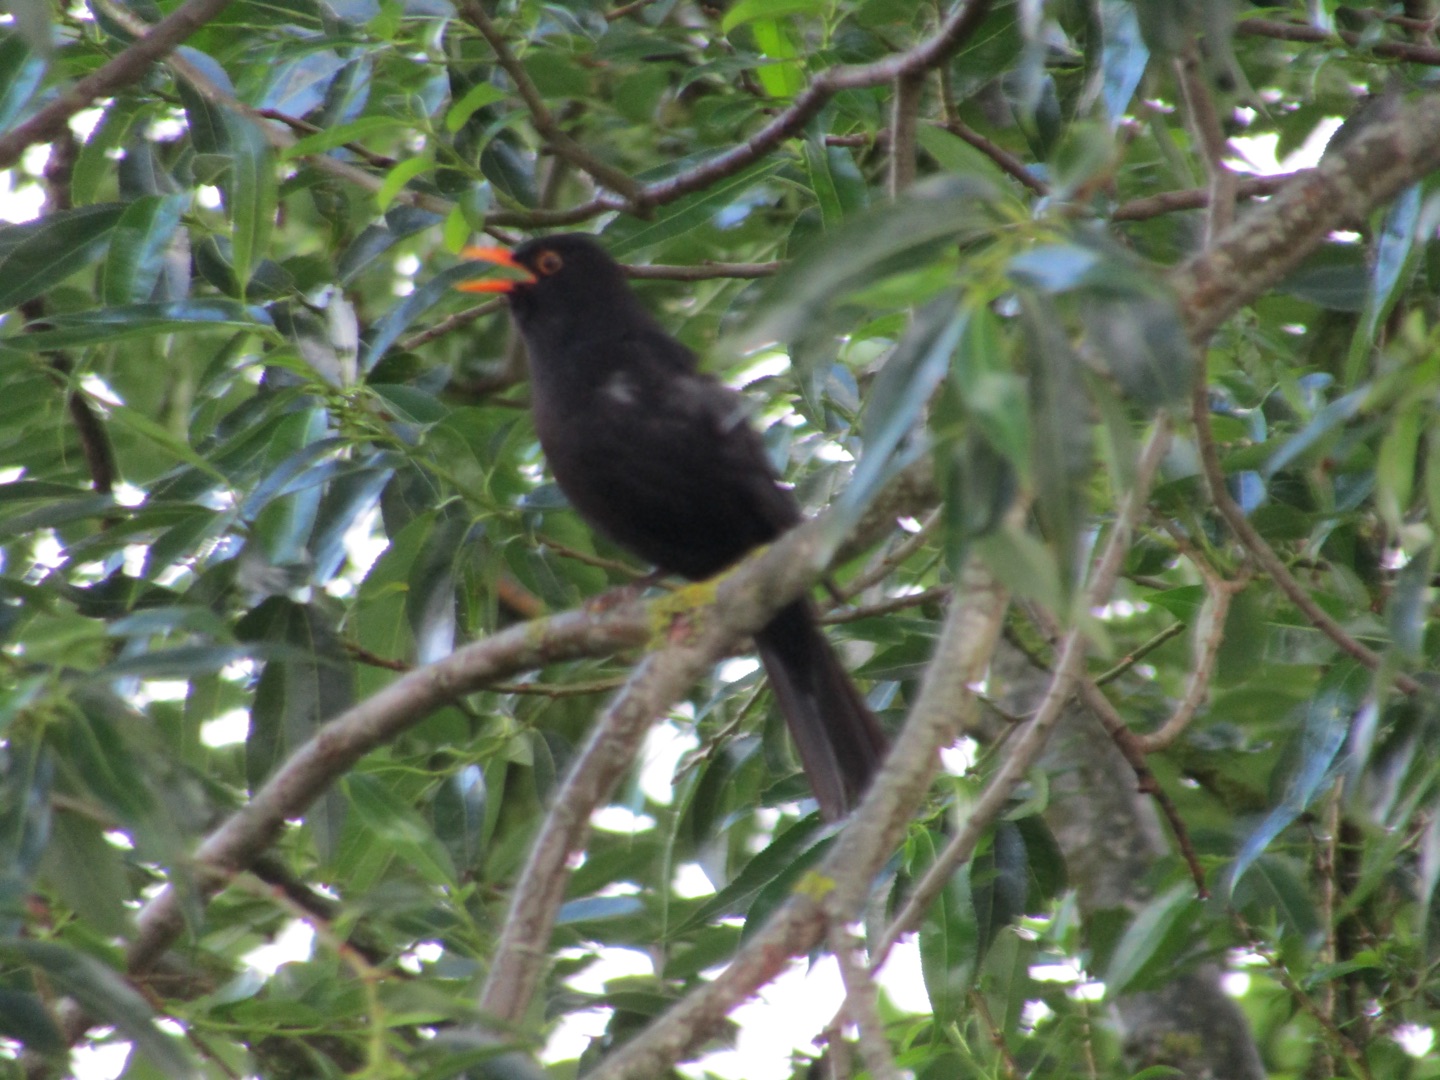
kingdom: Animalia
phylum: Chordata
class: Aves
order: Passeriformes
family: Turdidae
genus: Turdus
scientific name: Turdus merula
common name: Solsort
